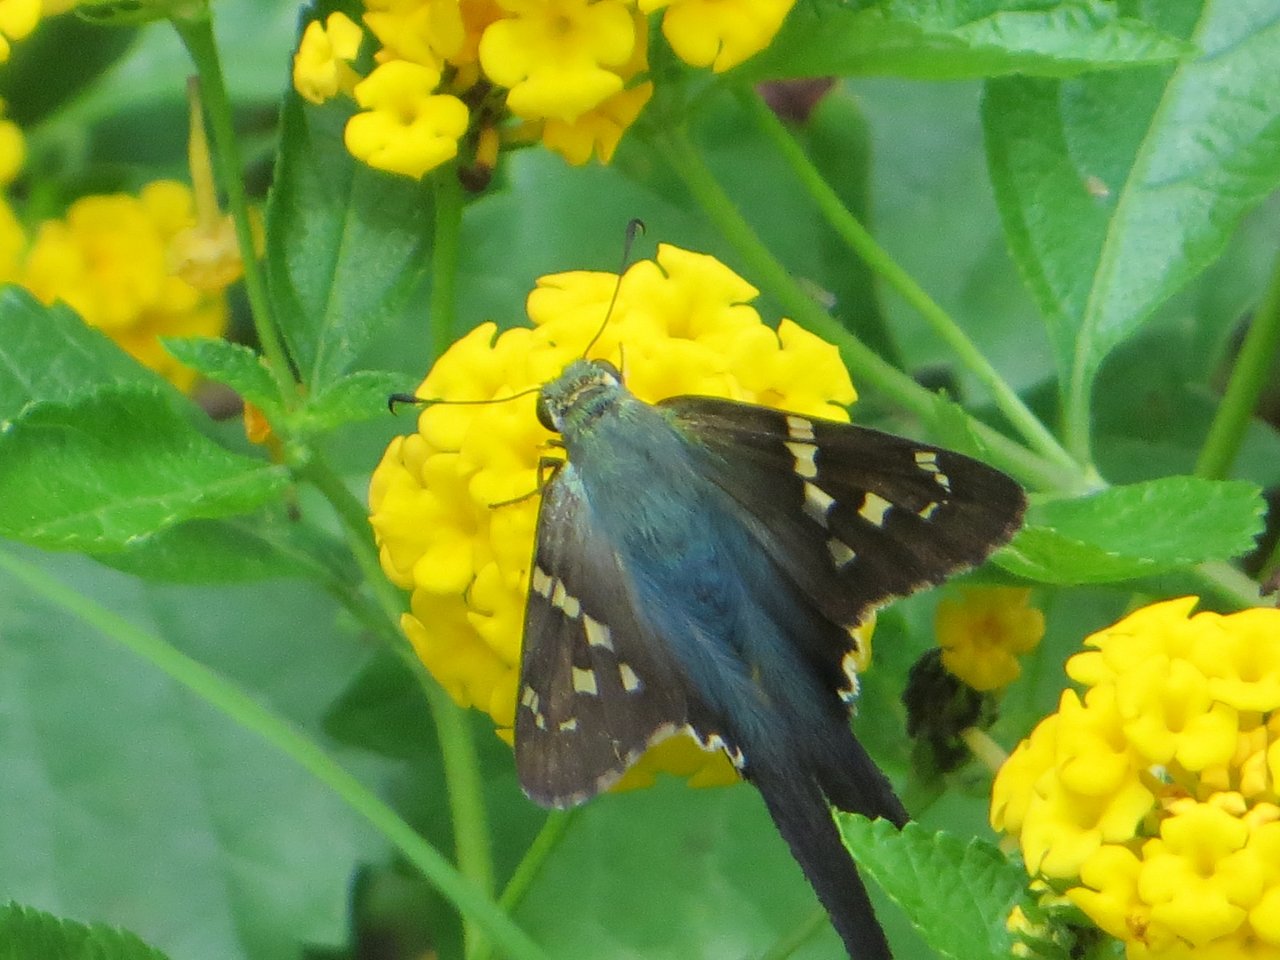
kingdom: Animalia
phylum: Arthropoda
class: Insecta
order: Lepidoptera
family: Hesperiidae
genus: Urbanus
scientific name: Urbanus proteus
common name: Long-tailed Skipper
